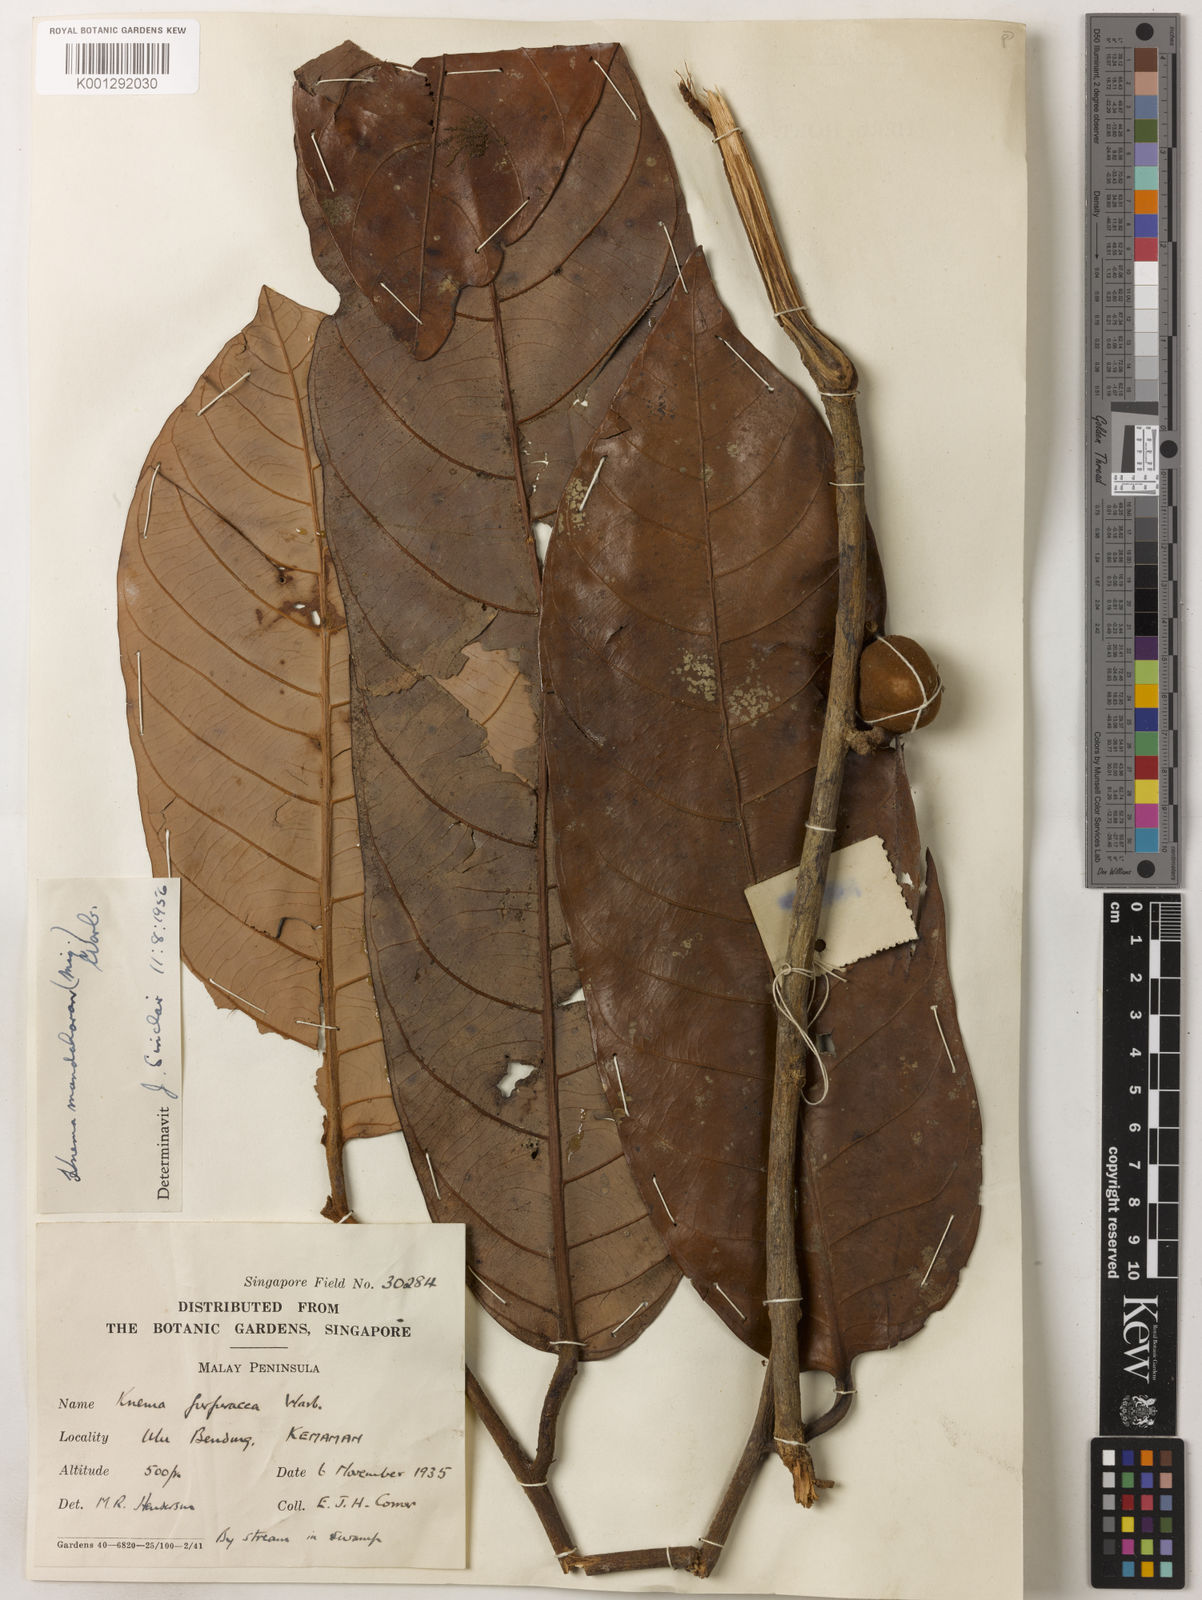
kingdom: Plantae
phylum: Tracheophyta
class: Magnoliopsida
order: Magnoliales
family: Myristicaceae
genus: Knema
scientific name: Knema mandaharan
